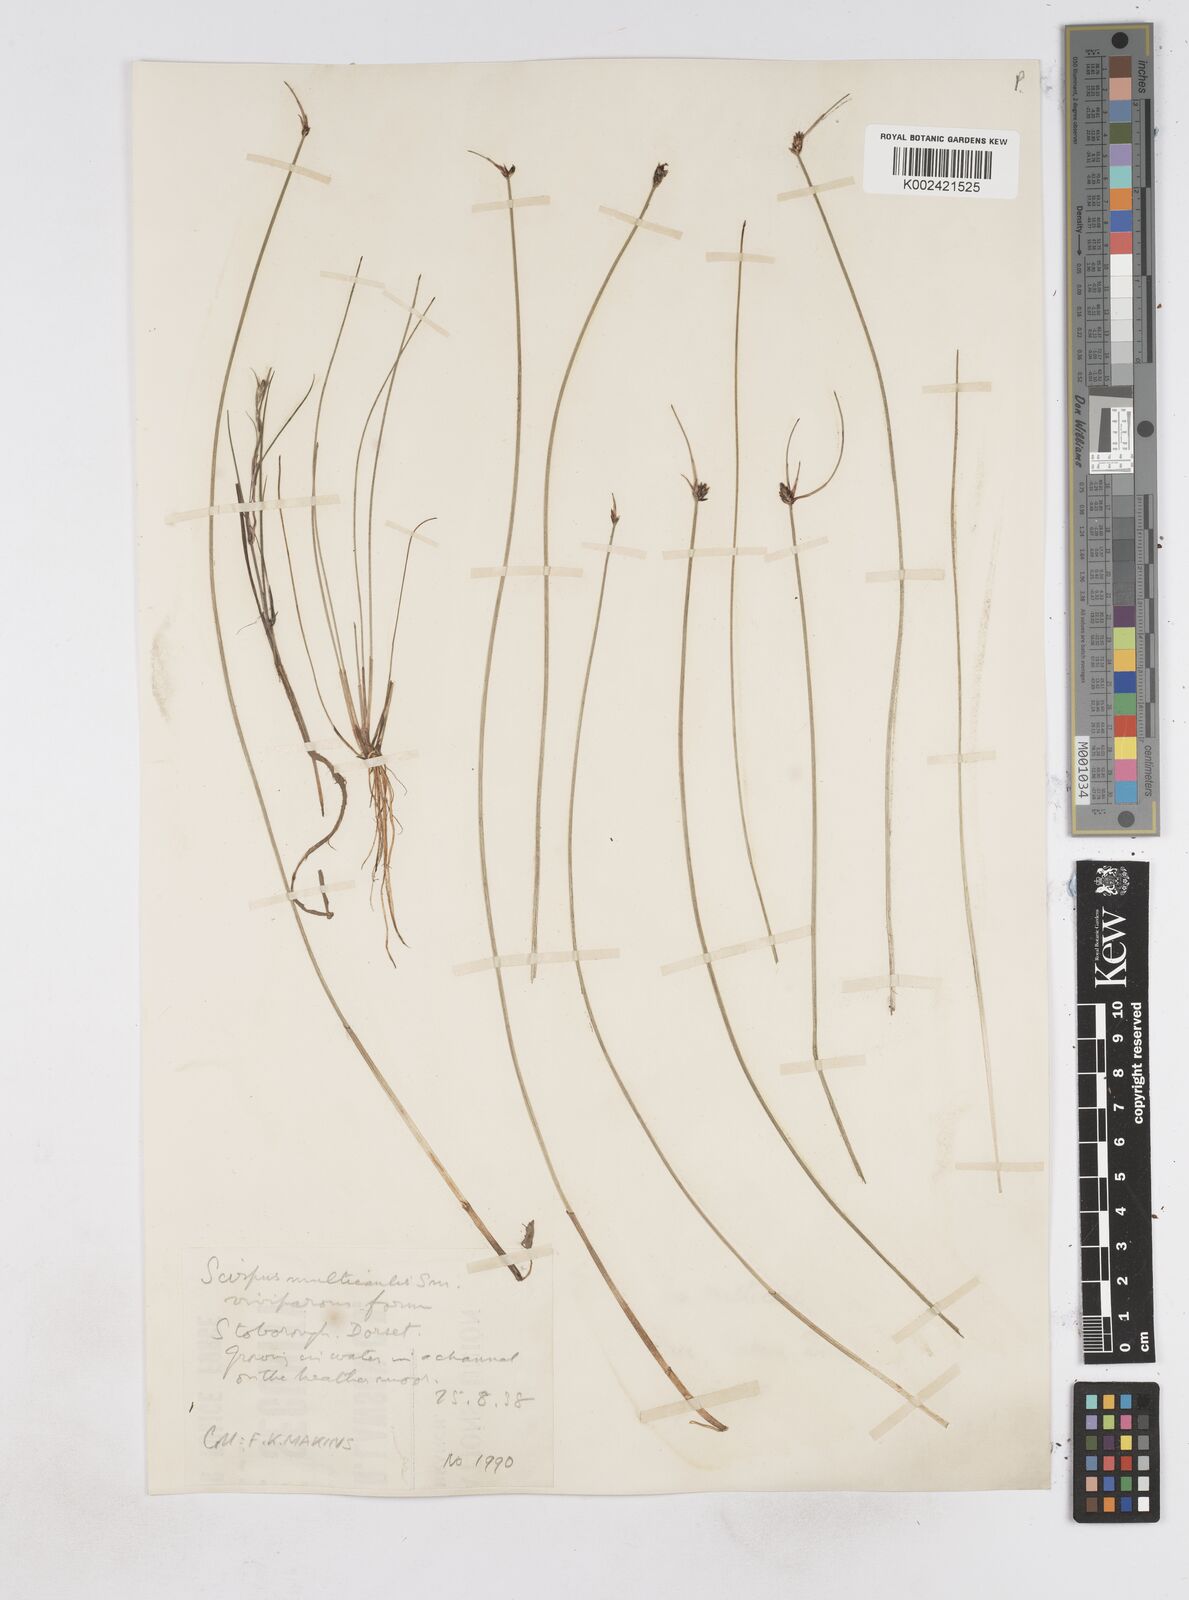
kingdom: Plantae
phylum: Tracheophyta
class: Liliopsida
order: Poales
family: Cyperaceae
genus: Eleocharis
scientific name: Eleocharis multicaulis
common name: Many-stalked spike-rush
